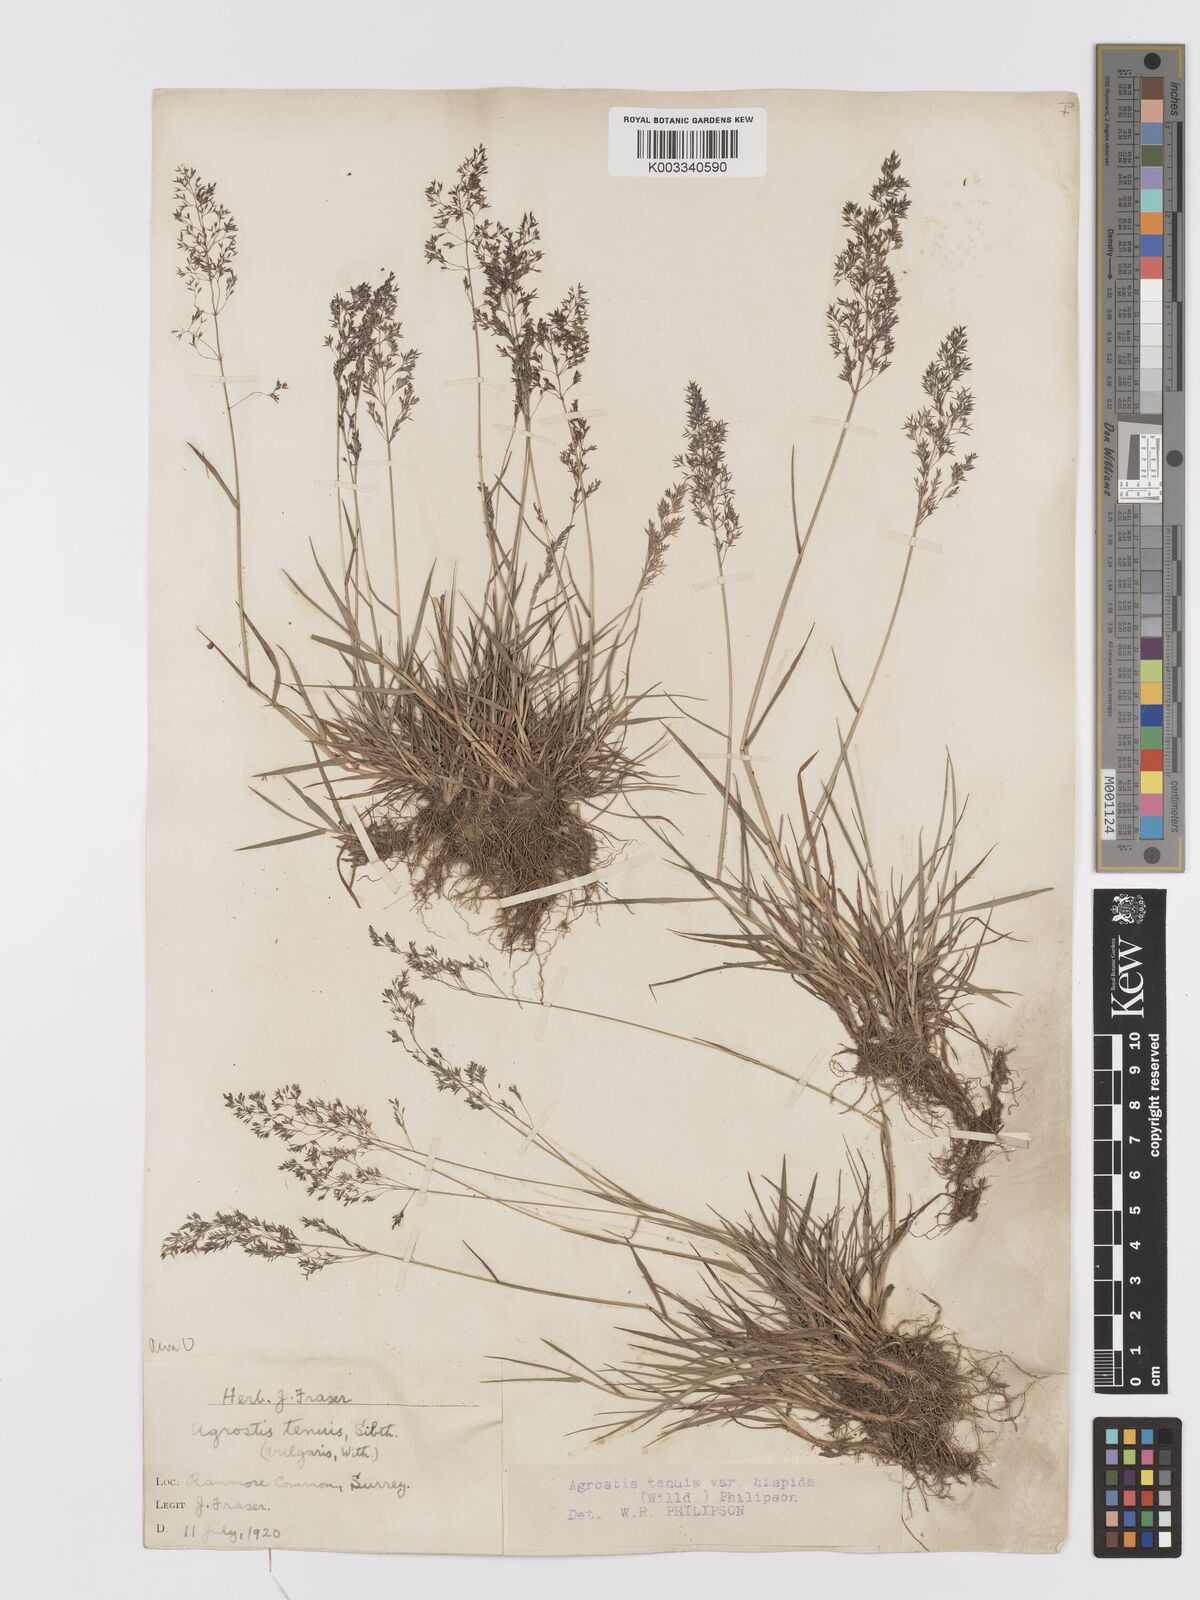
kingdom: Plantae
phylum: Tracheophyta
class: Liliopsida
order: Poales
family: Poaceae
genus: Agrostis
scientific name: Agrostis capillaris
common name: Colonial bentgrass
